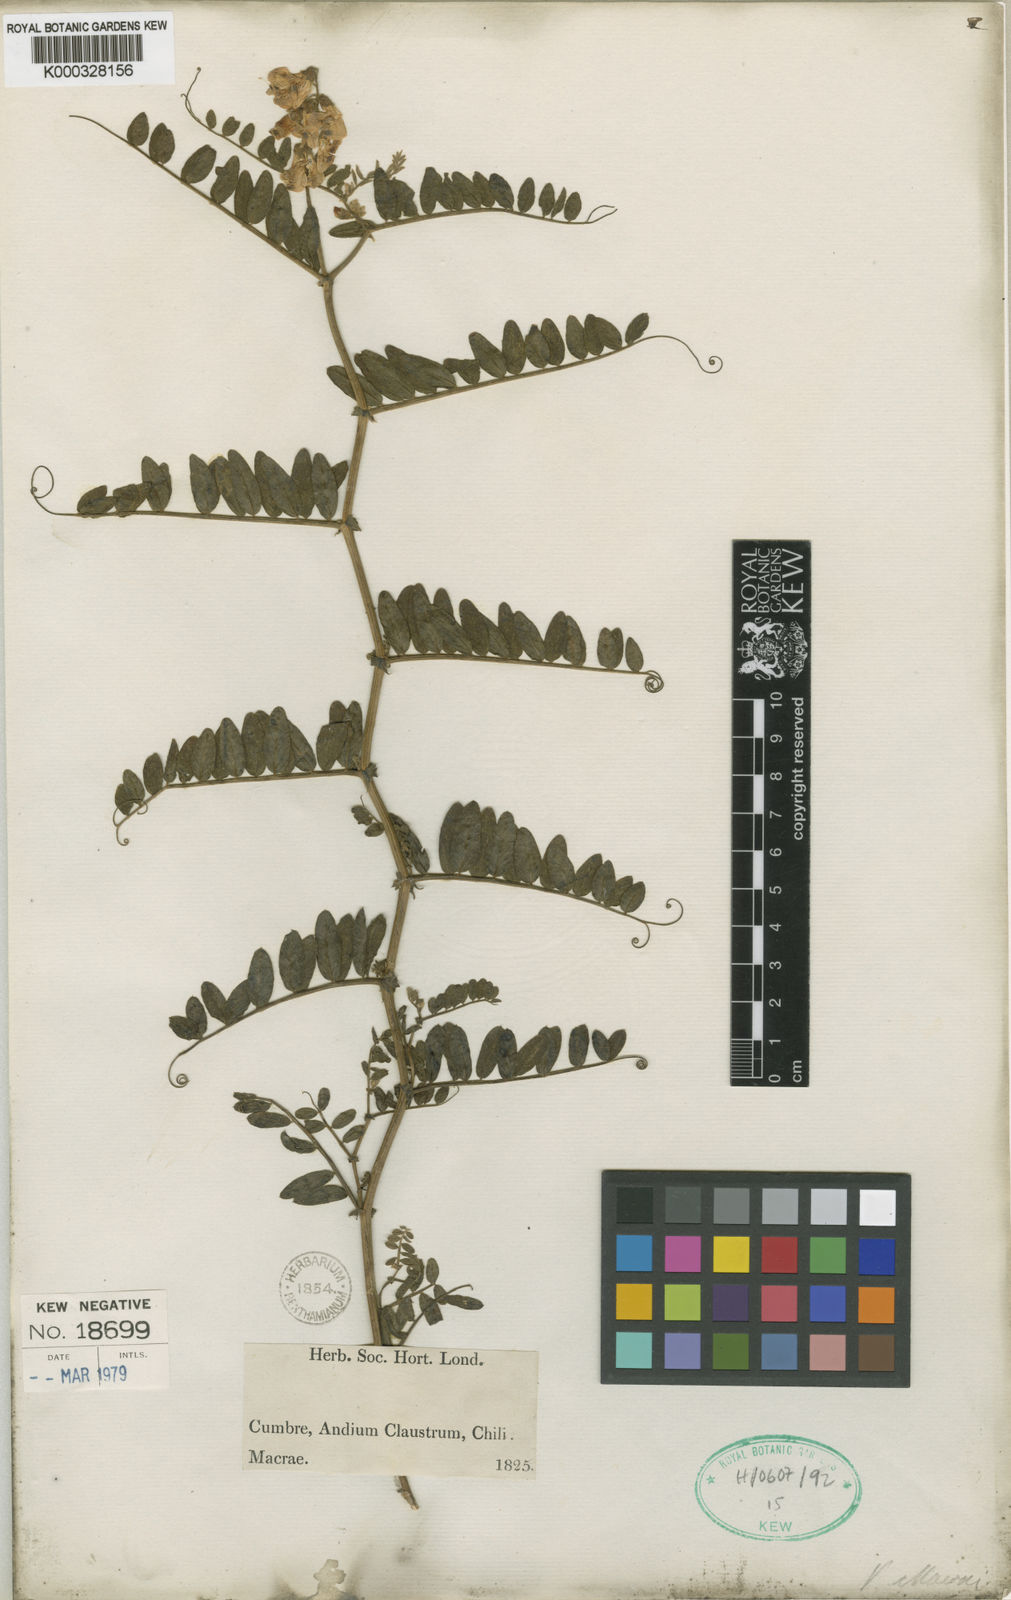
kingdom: Plantae
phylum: Tracheophyta
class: Magnoliopsida
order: Fabales
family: Fabaceae
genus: Vicia
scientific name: Vicia nigricans
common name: Black vetch
